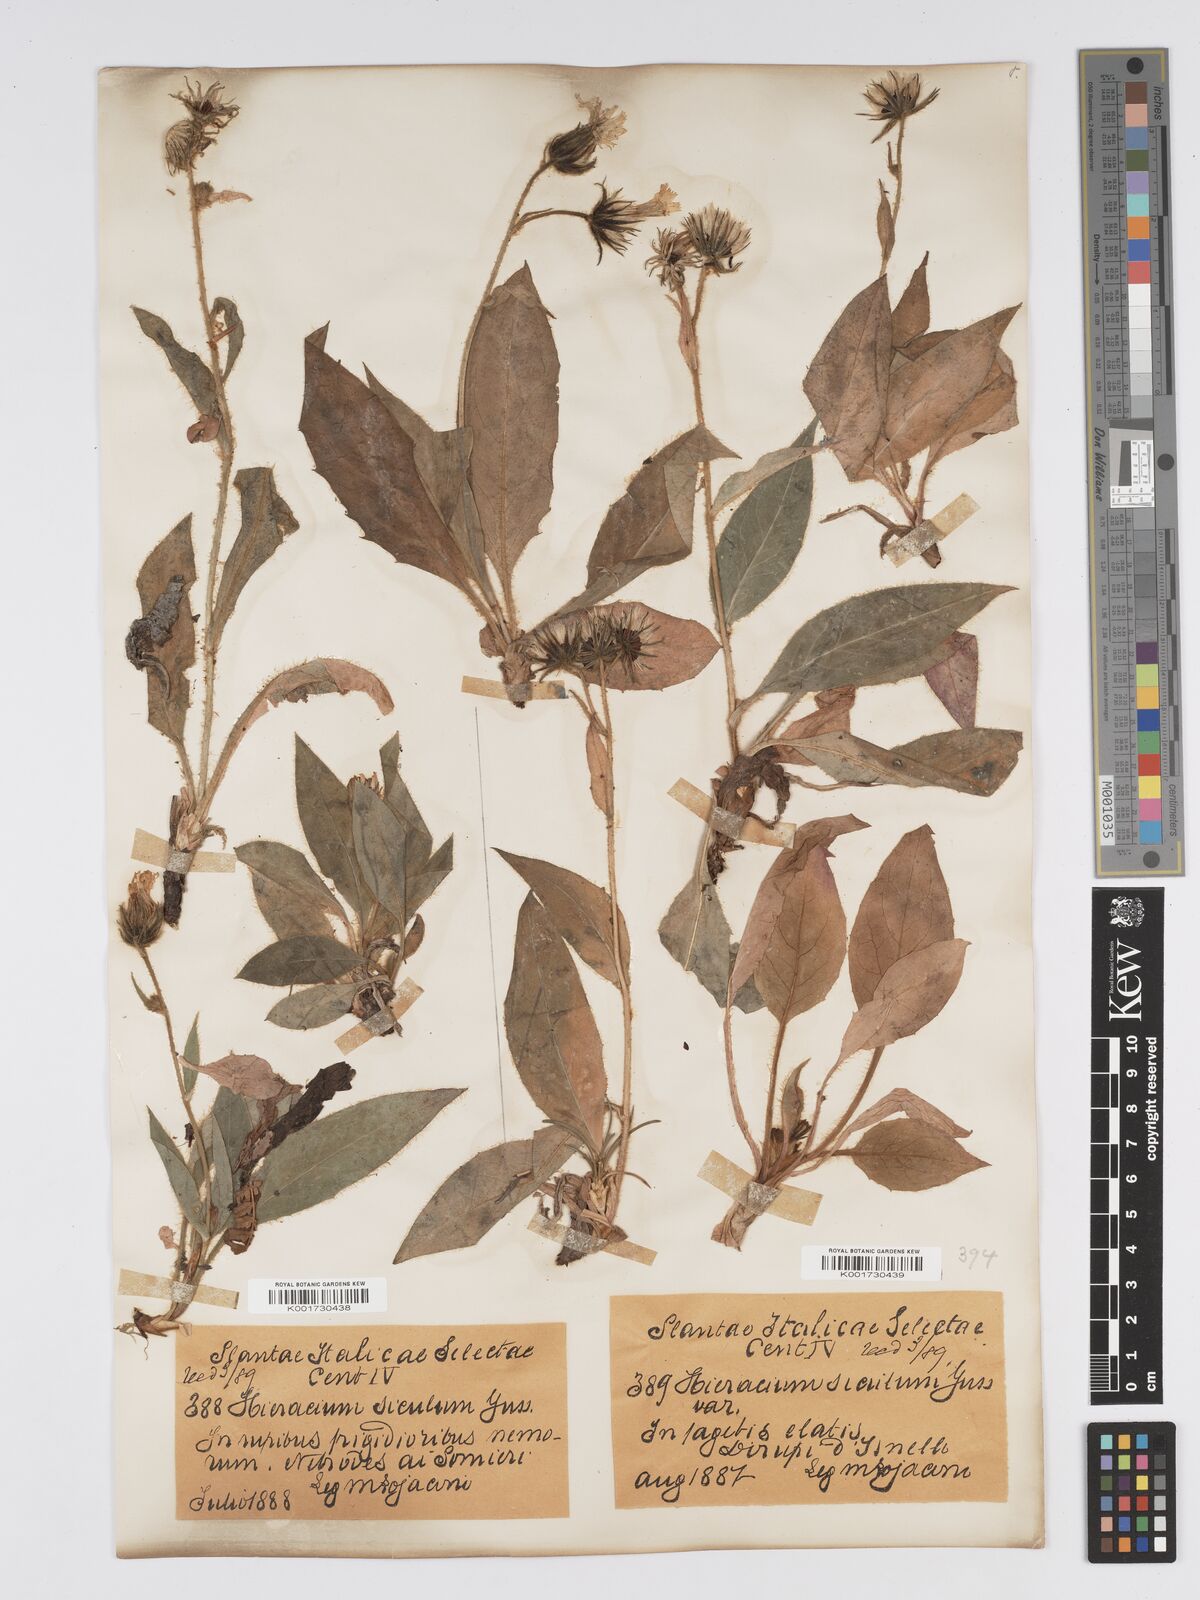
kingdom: Plantae
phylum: Tracheophyta
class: Magnoliopsida
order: Asterales
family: Asteraceae
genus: Hieracium
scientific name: Hieracium symphytifolium
